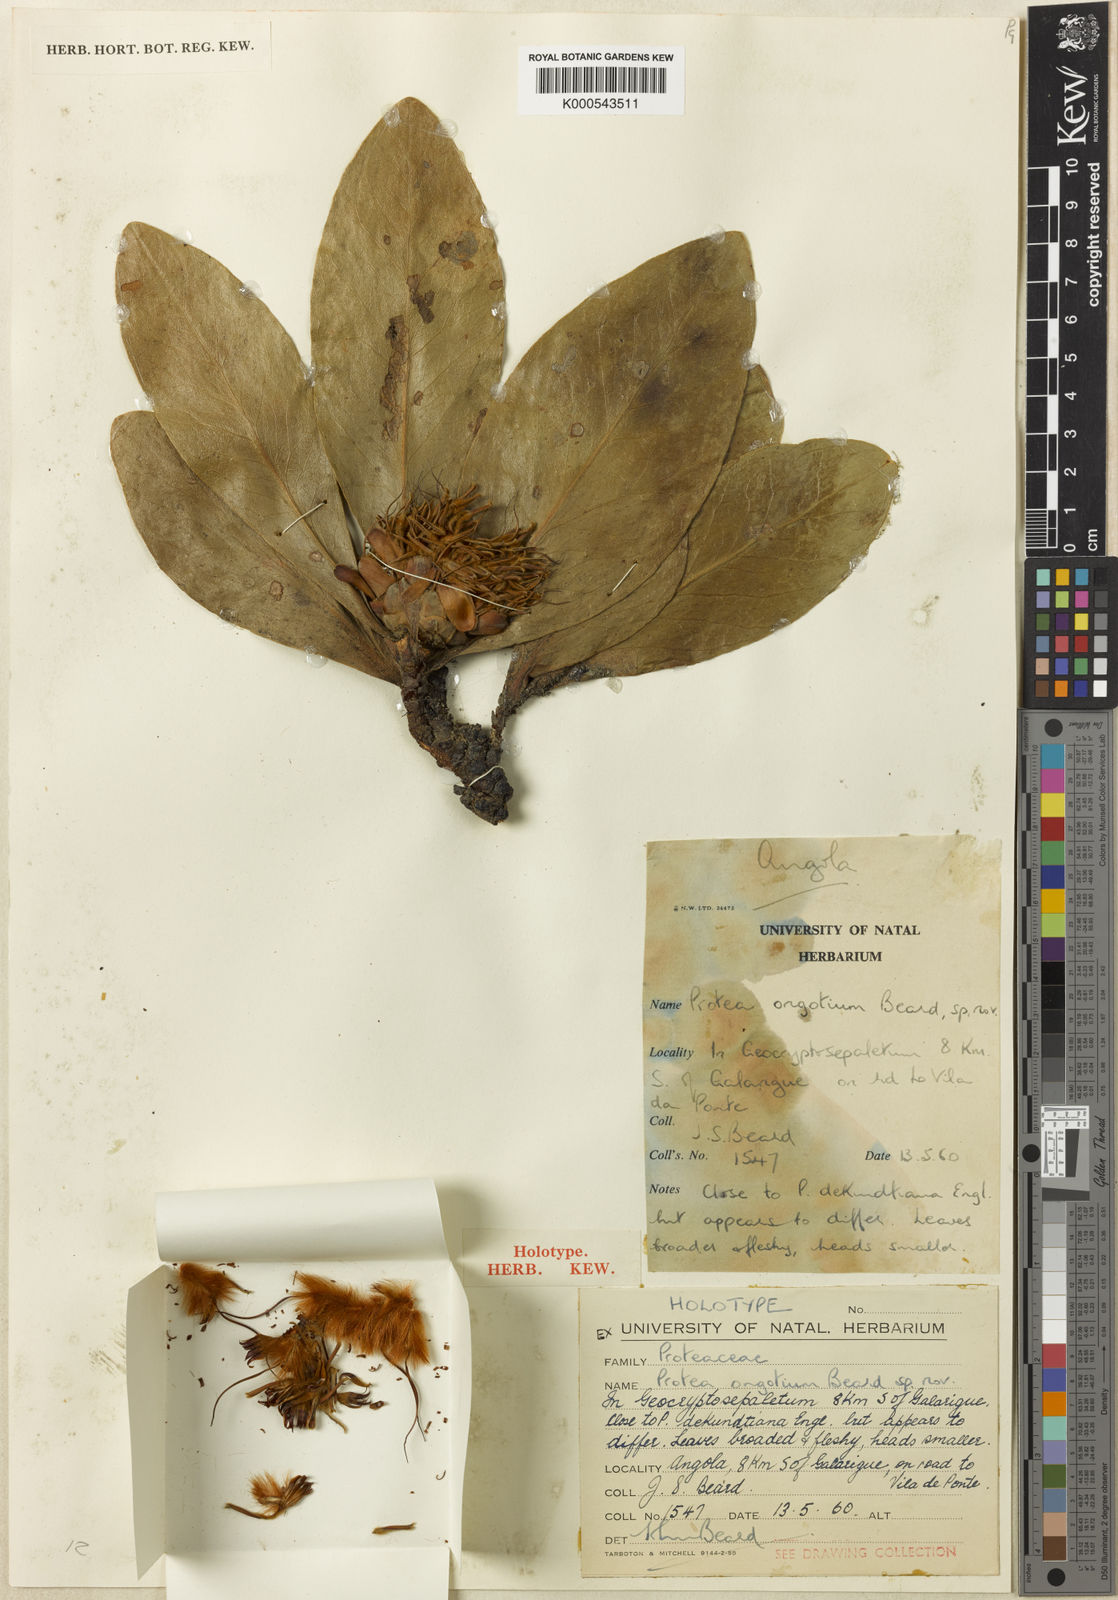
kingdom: Plantae
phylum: Tracheophyta
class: Magnoliopsida
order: Proteales
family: Proteaceae
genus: Protea
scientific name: Protea ongotium
